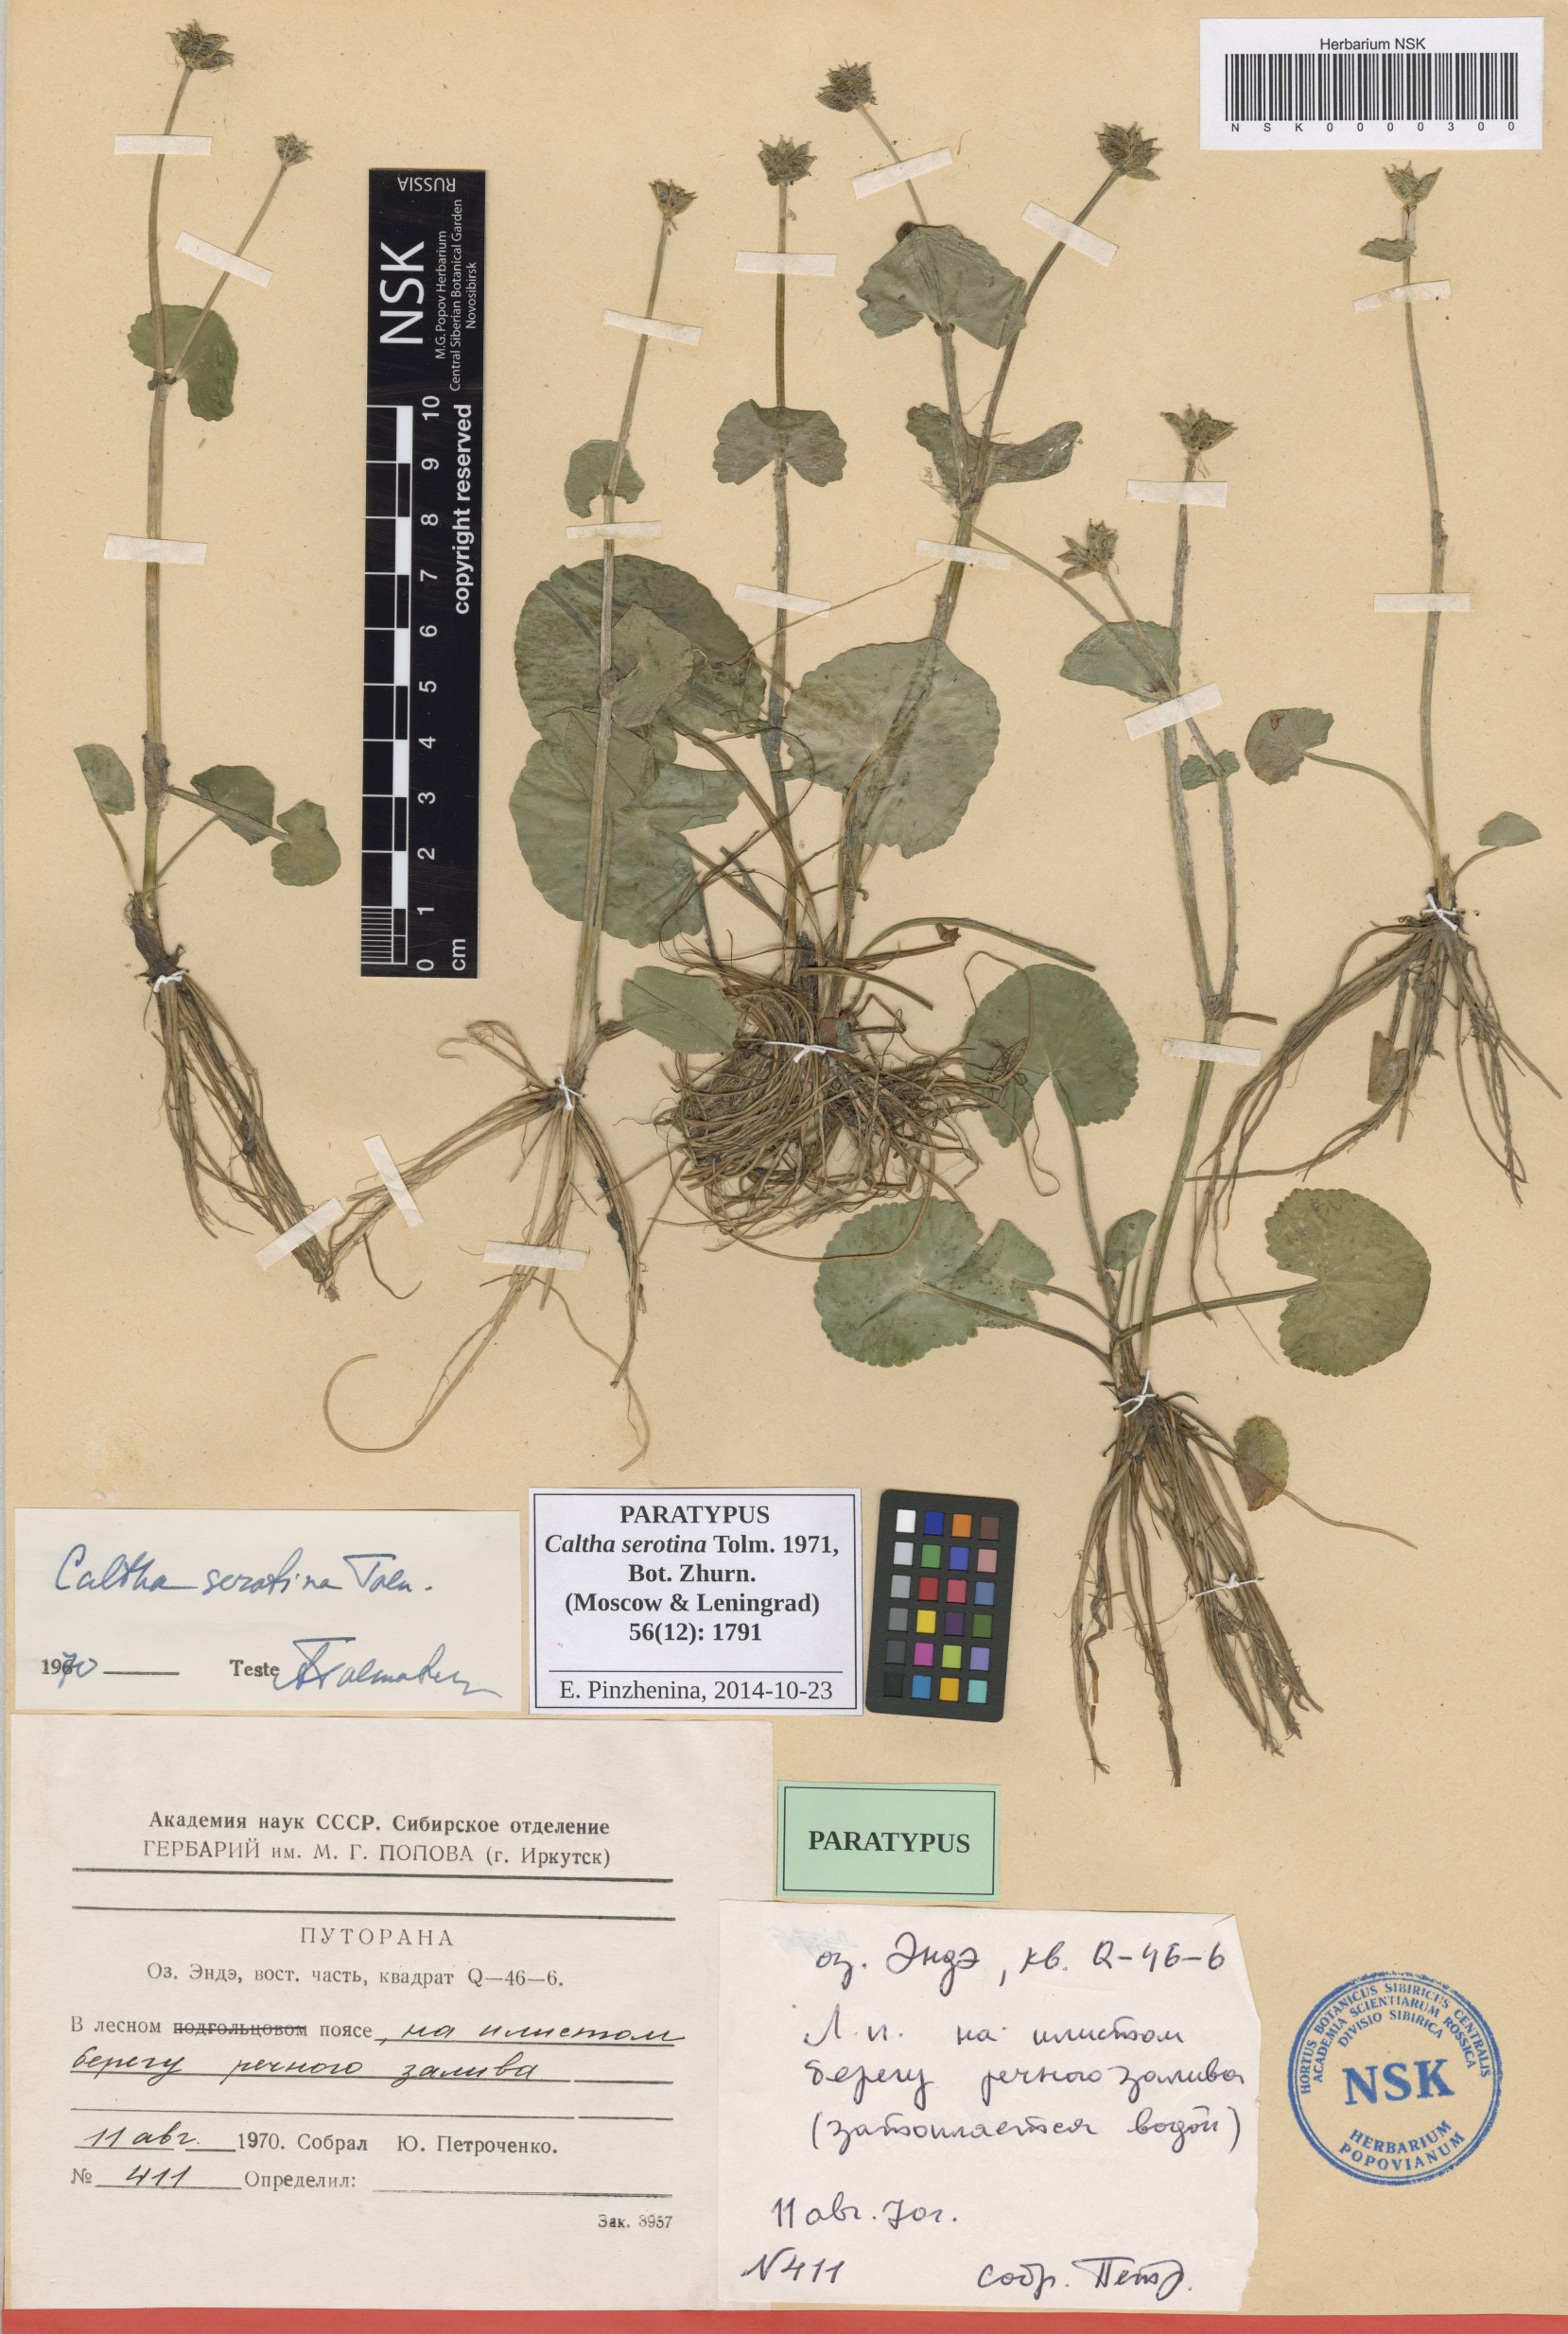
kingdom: Plantae
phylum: Tracheophyta
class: Magnoliopsida
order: Ranunculales
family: Ranunculaceae
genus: Caltha
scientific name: Caltha palustris
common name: Marsh marigold
